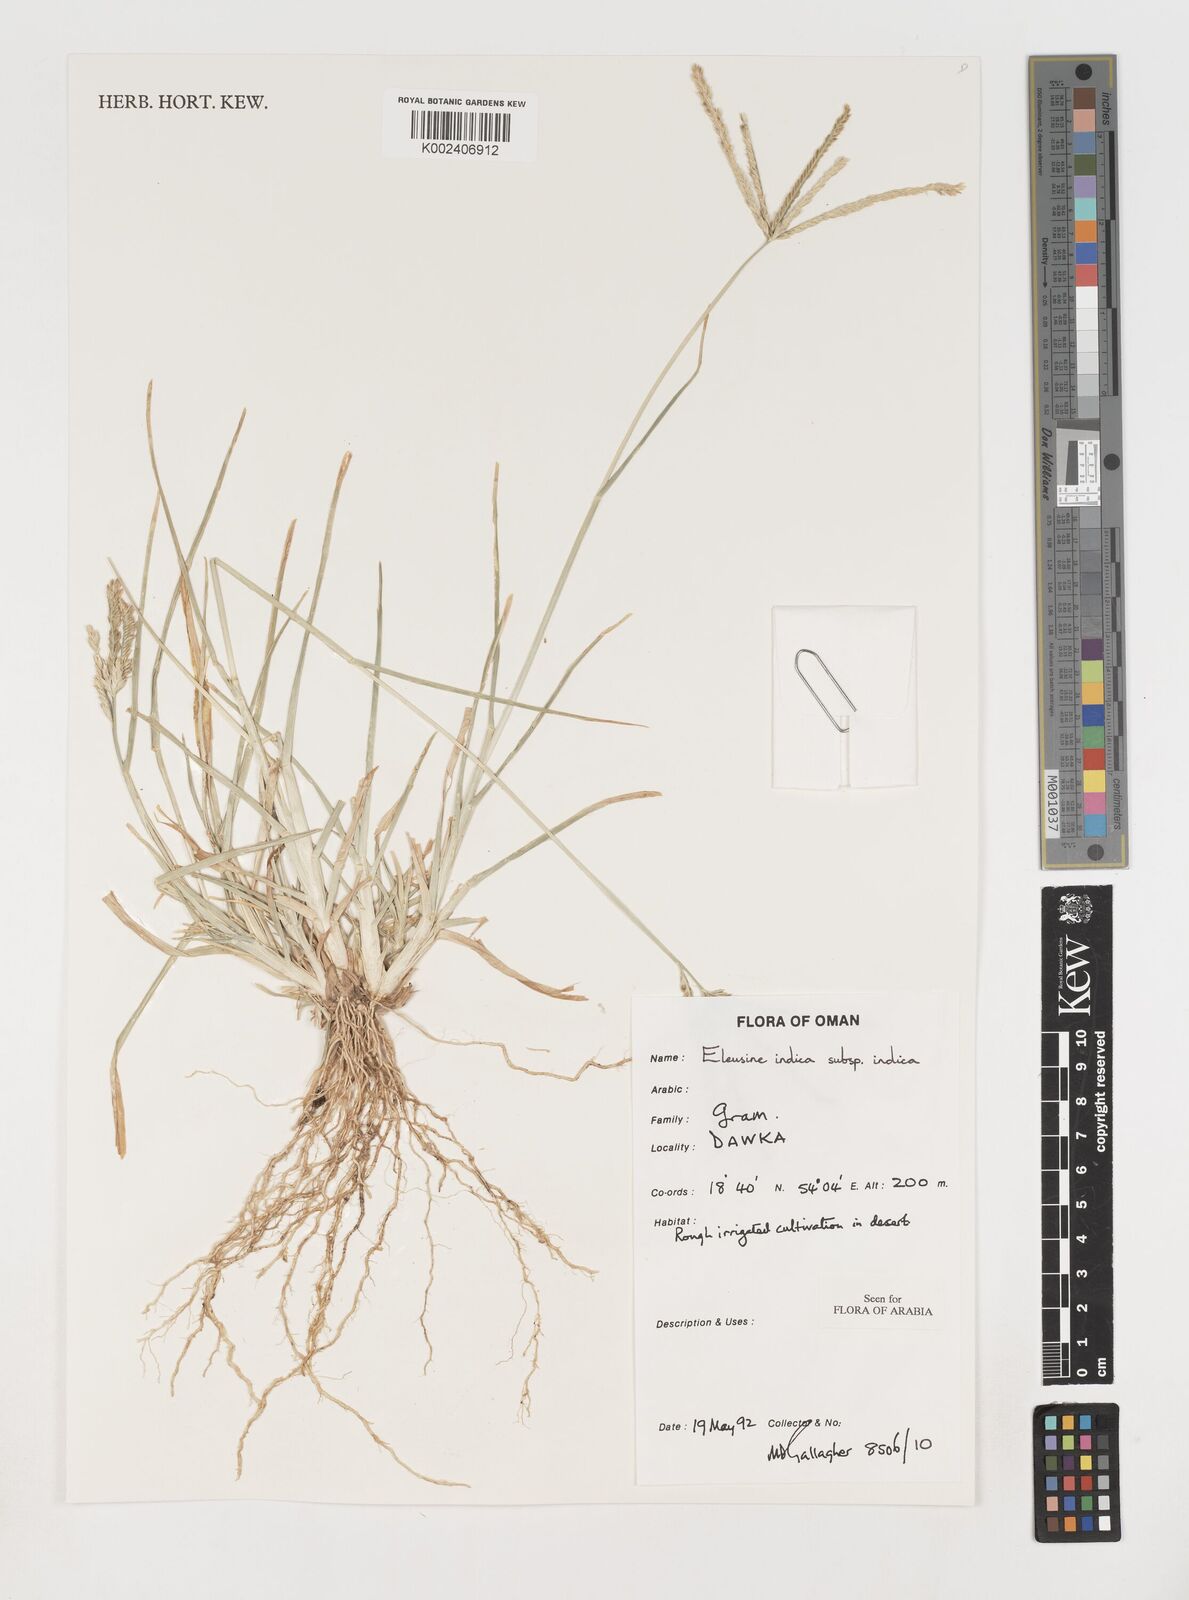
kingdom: Plantae
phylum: Tracheophyta
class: Liliopsida
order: Poales
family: Poaceae
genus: Eleusine
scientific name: Eleusine indica
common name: Yard-grass
